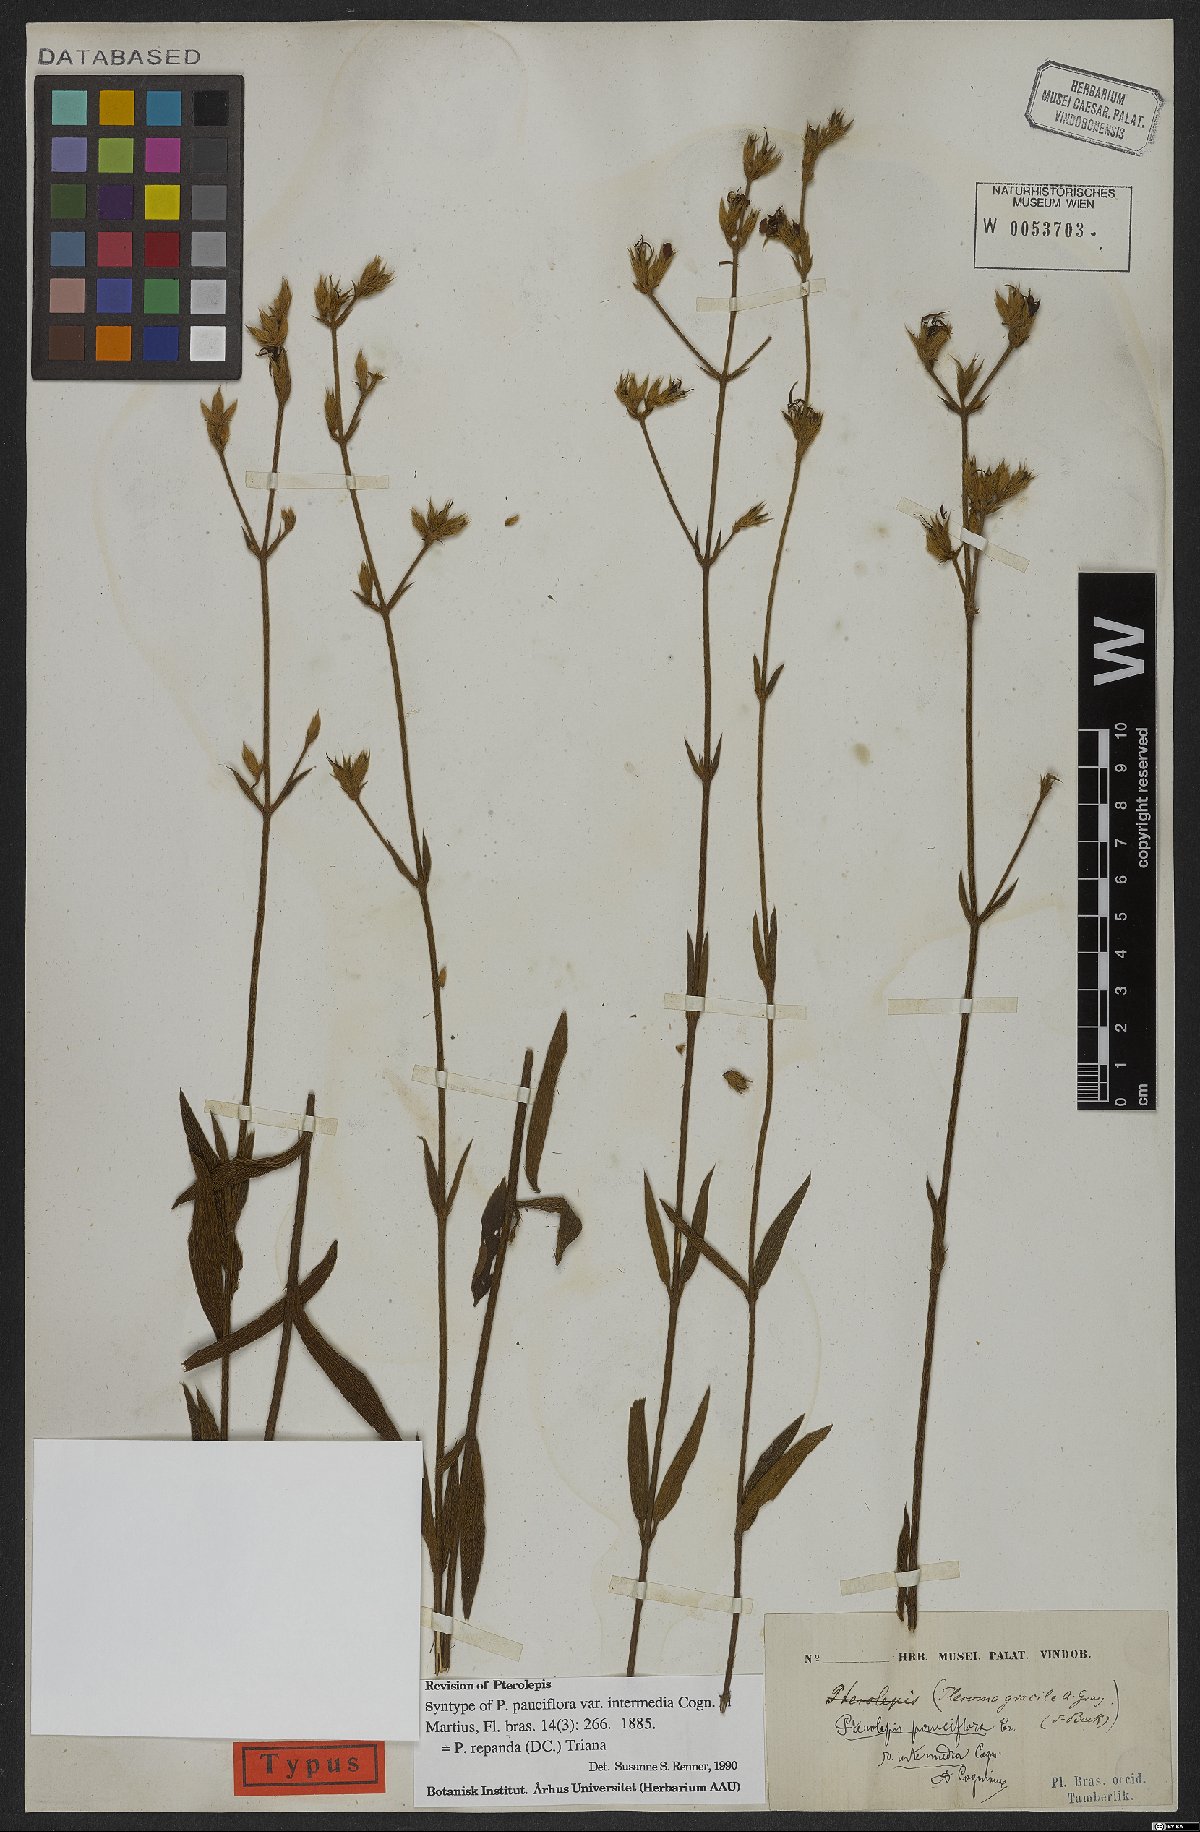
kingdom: Plantae
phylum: Tracheophyta
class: Magnoliopsida
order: Myrtales
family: Melastomataceae
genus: Pterolepis
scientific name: Pterolepis repanda
